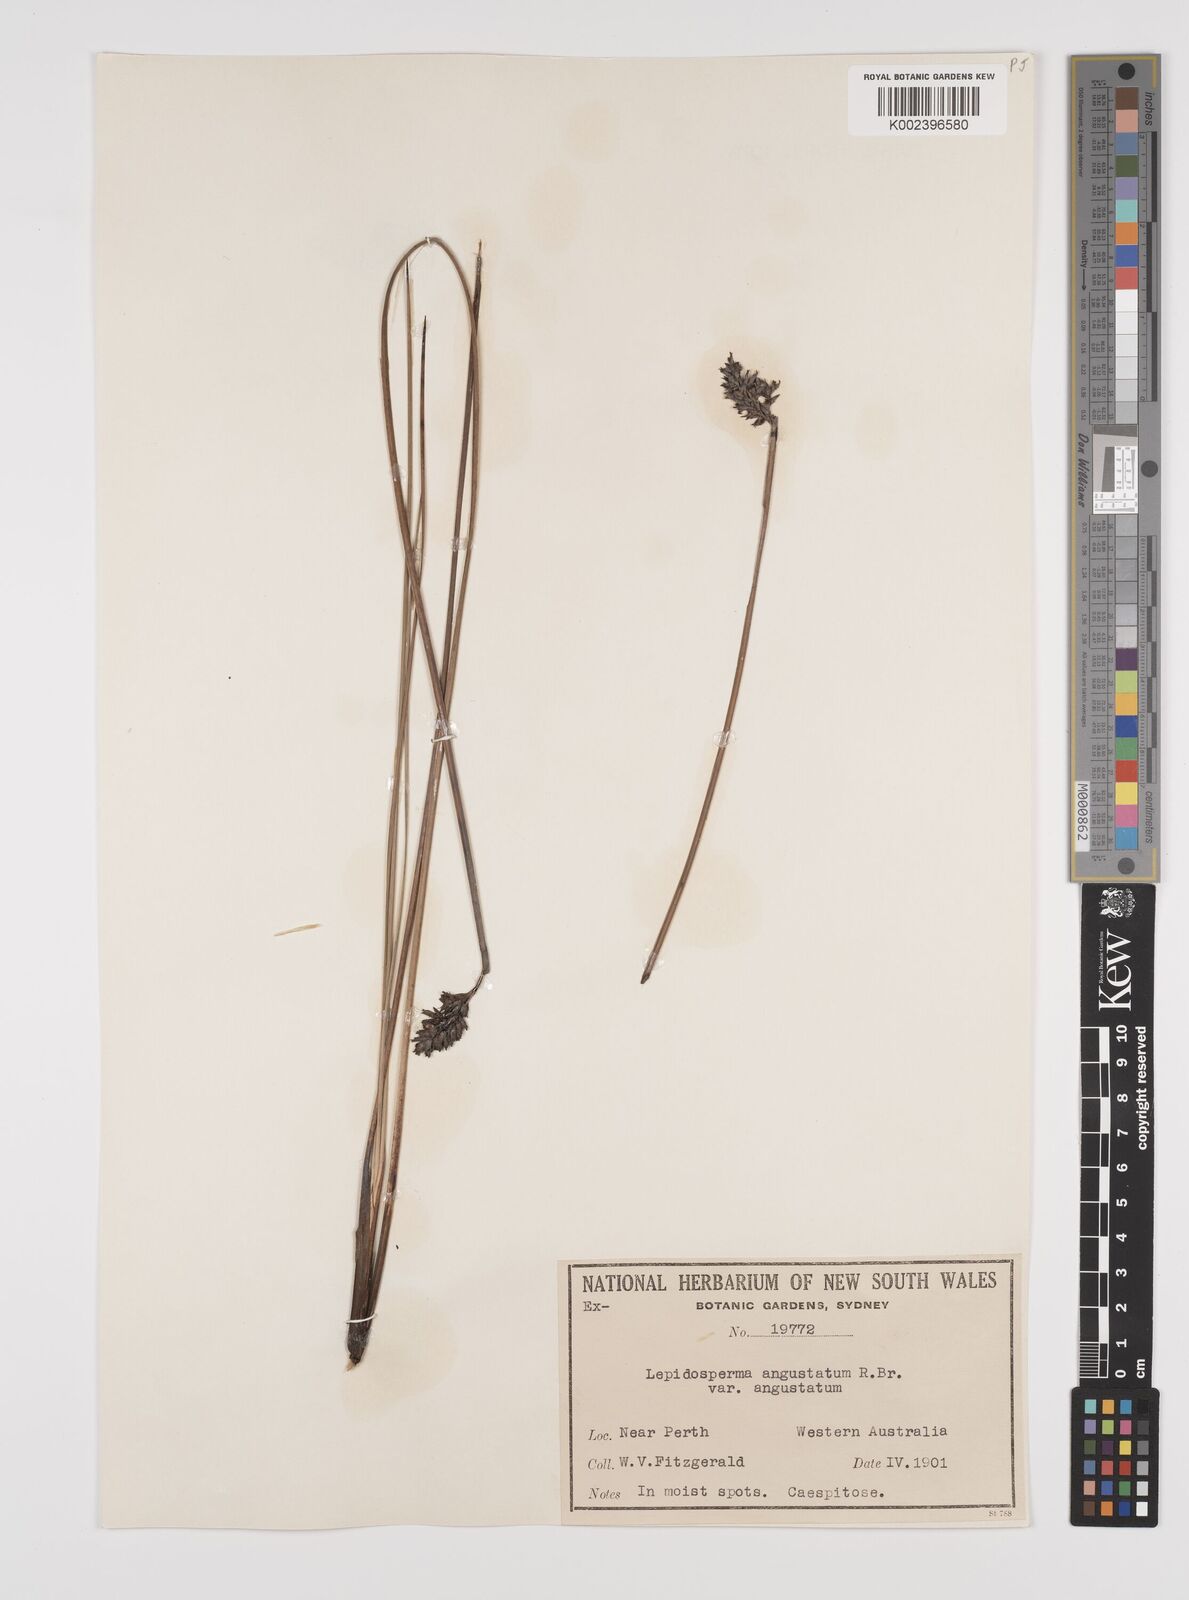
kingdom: Plantae
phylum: Tracheophyta
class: Liliopsida
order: Poales
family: Cyperaceae
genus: Lepidosperma
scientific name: Lepidosperma angustatum
